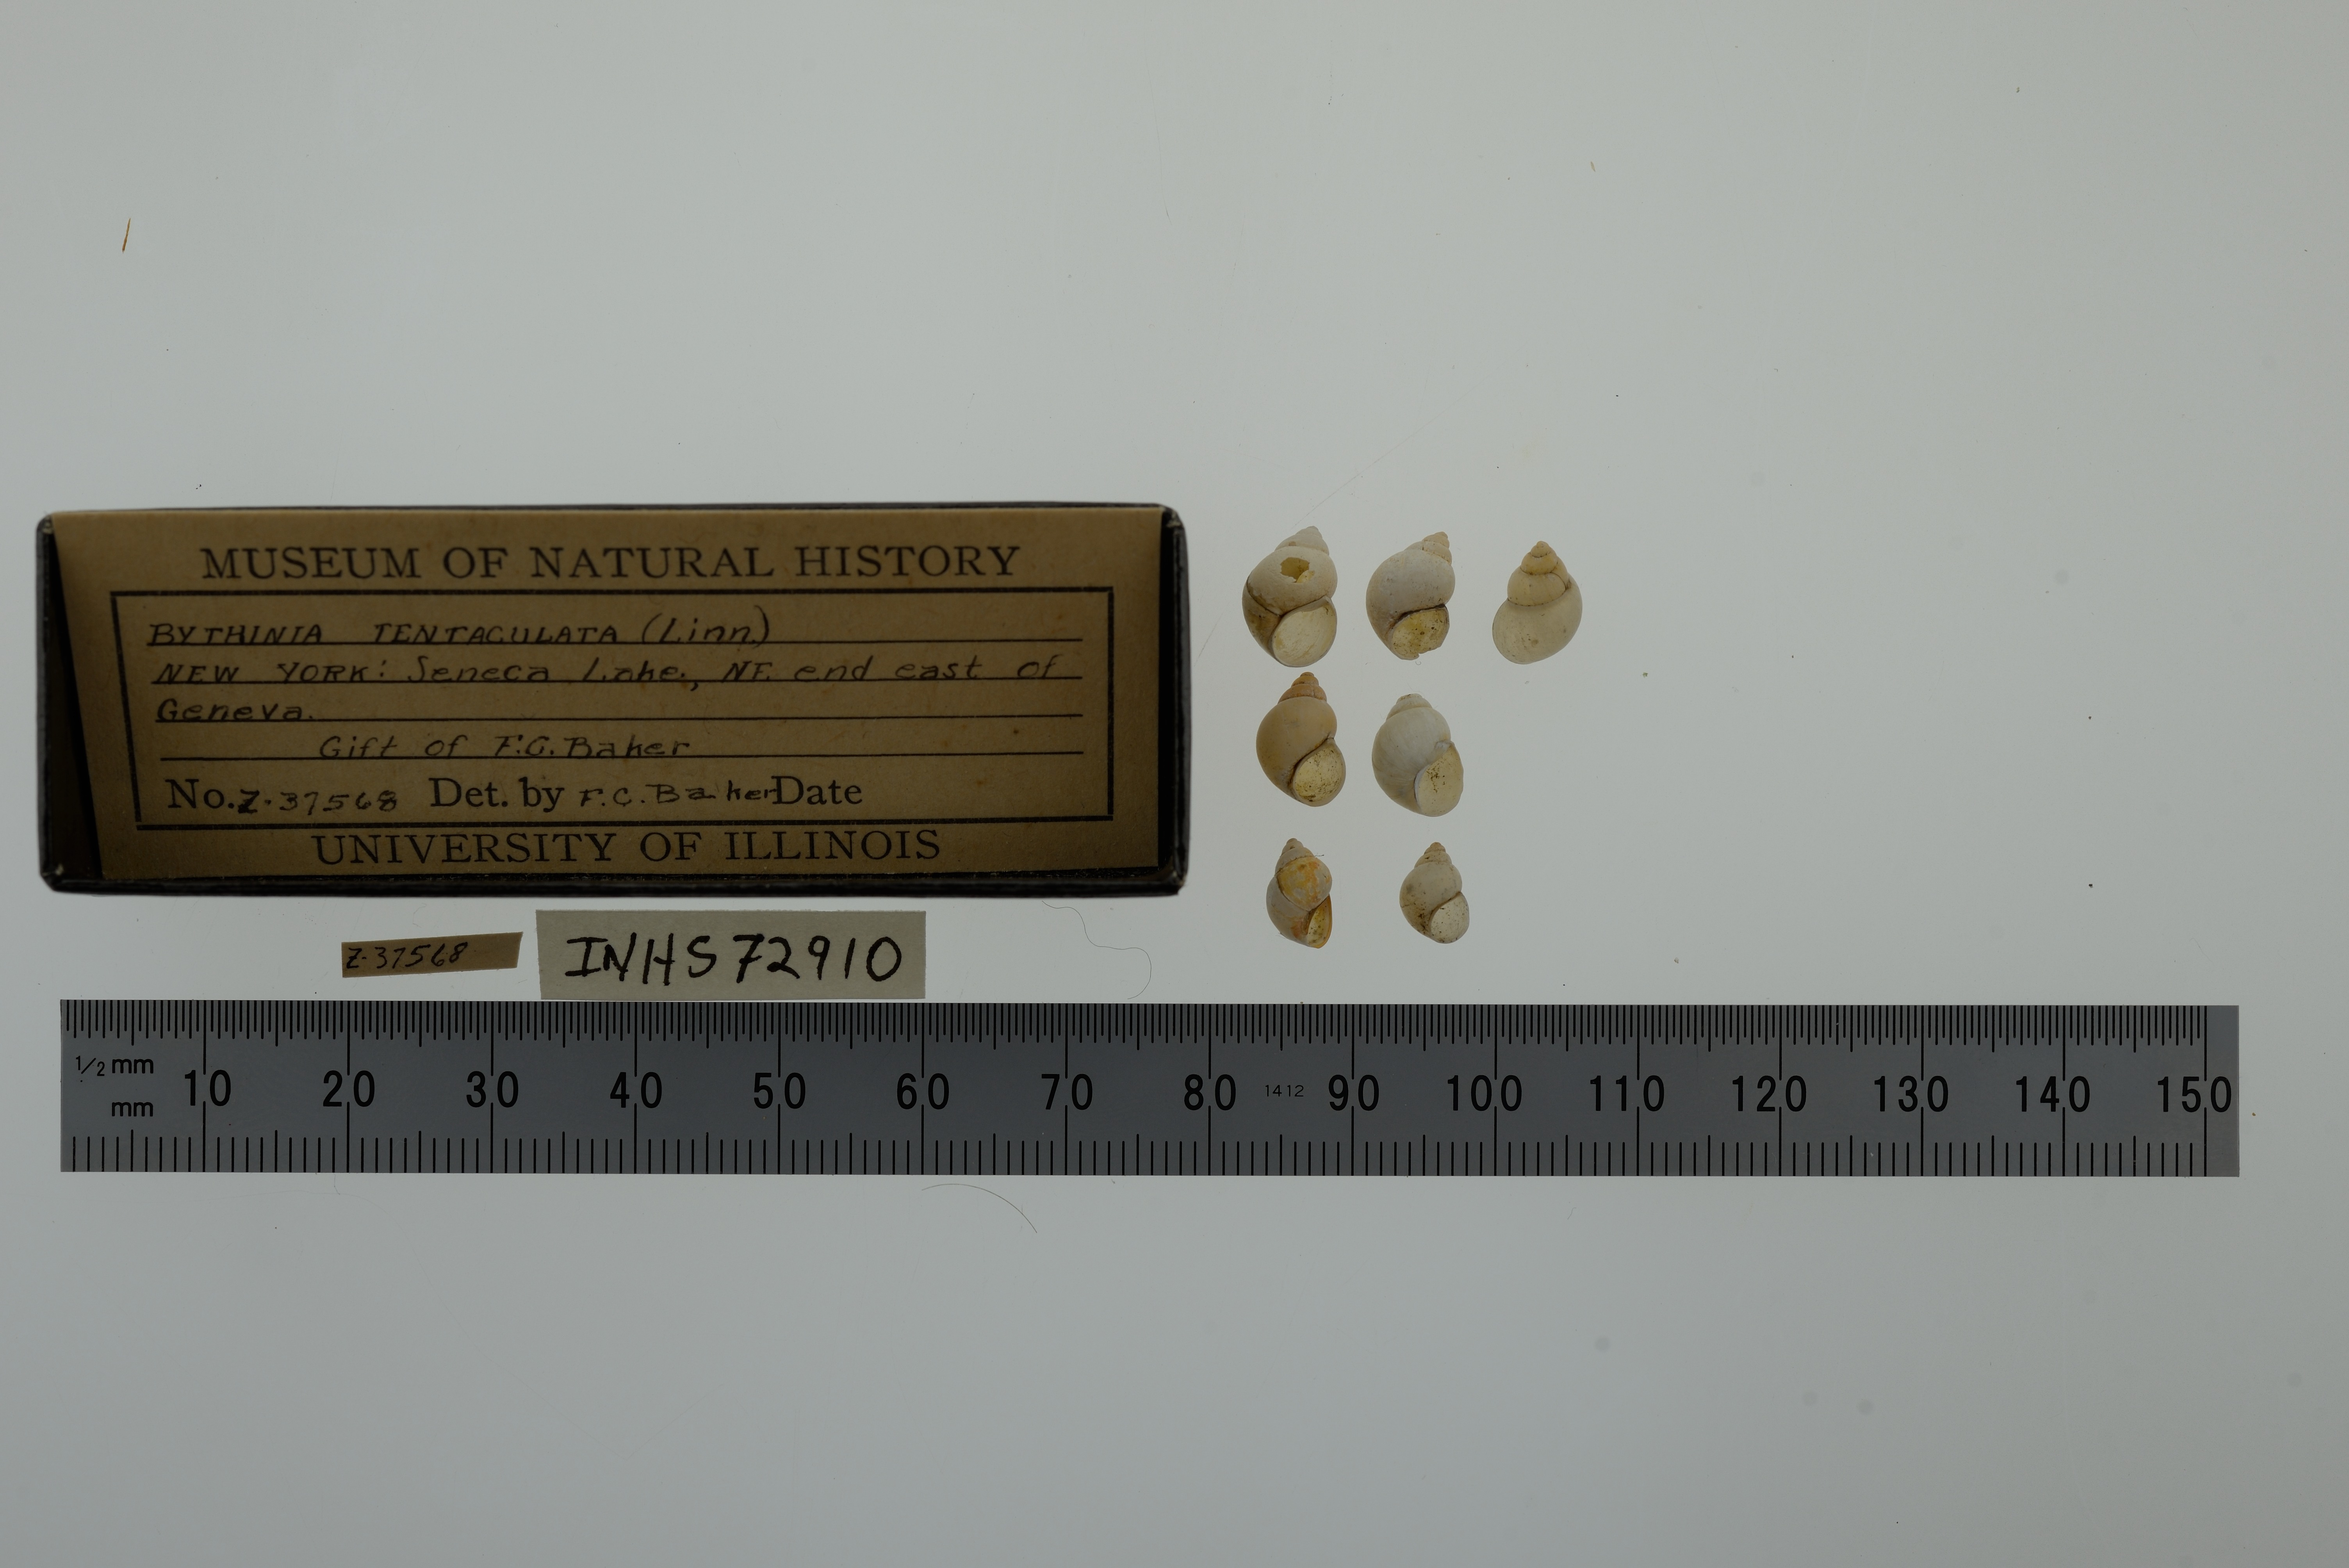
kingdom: Animalia
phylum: Mollusca
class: Gastropoda
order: Littorinimorpha
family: Bithyniidae
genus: Bithynia
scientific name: Bithynia tentaculata
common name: Common bithynia
